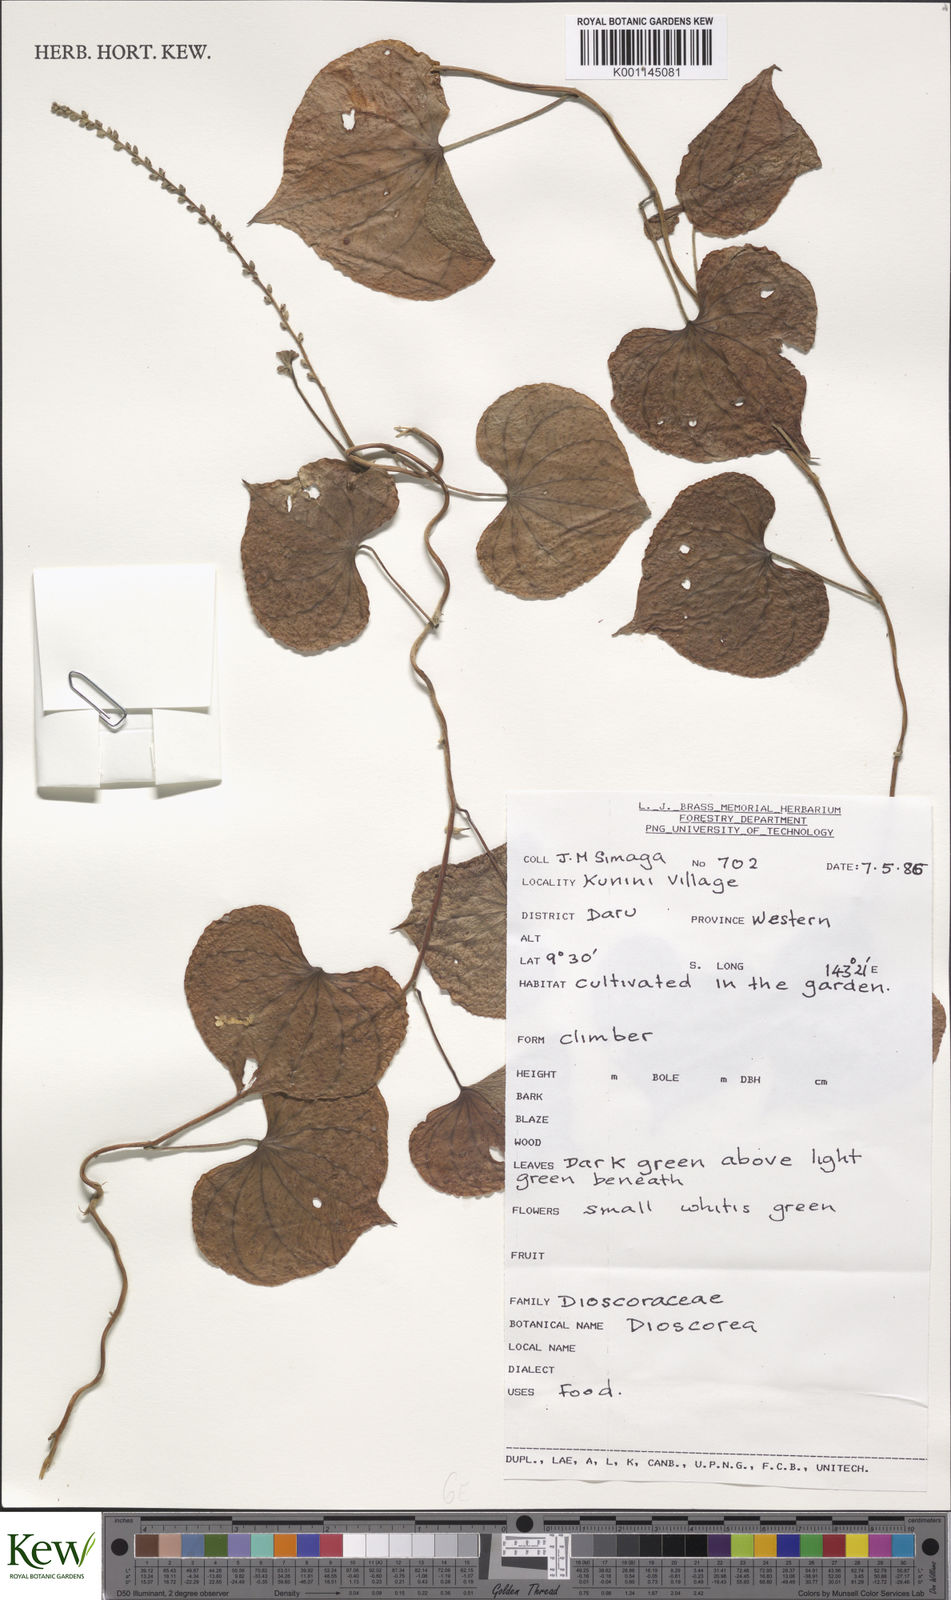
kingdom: Plantae
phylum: Tracheophyta
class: Liliopsida
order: Dioscoreales
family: Dioscoreaceae
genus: Dioscorea
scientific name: Dioscorea
